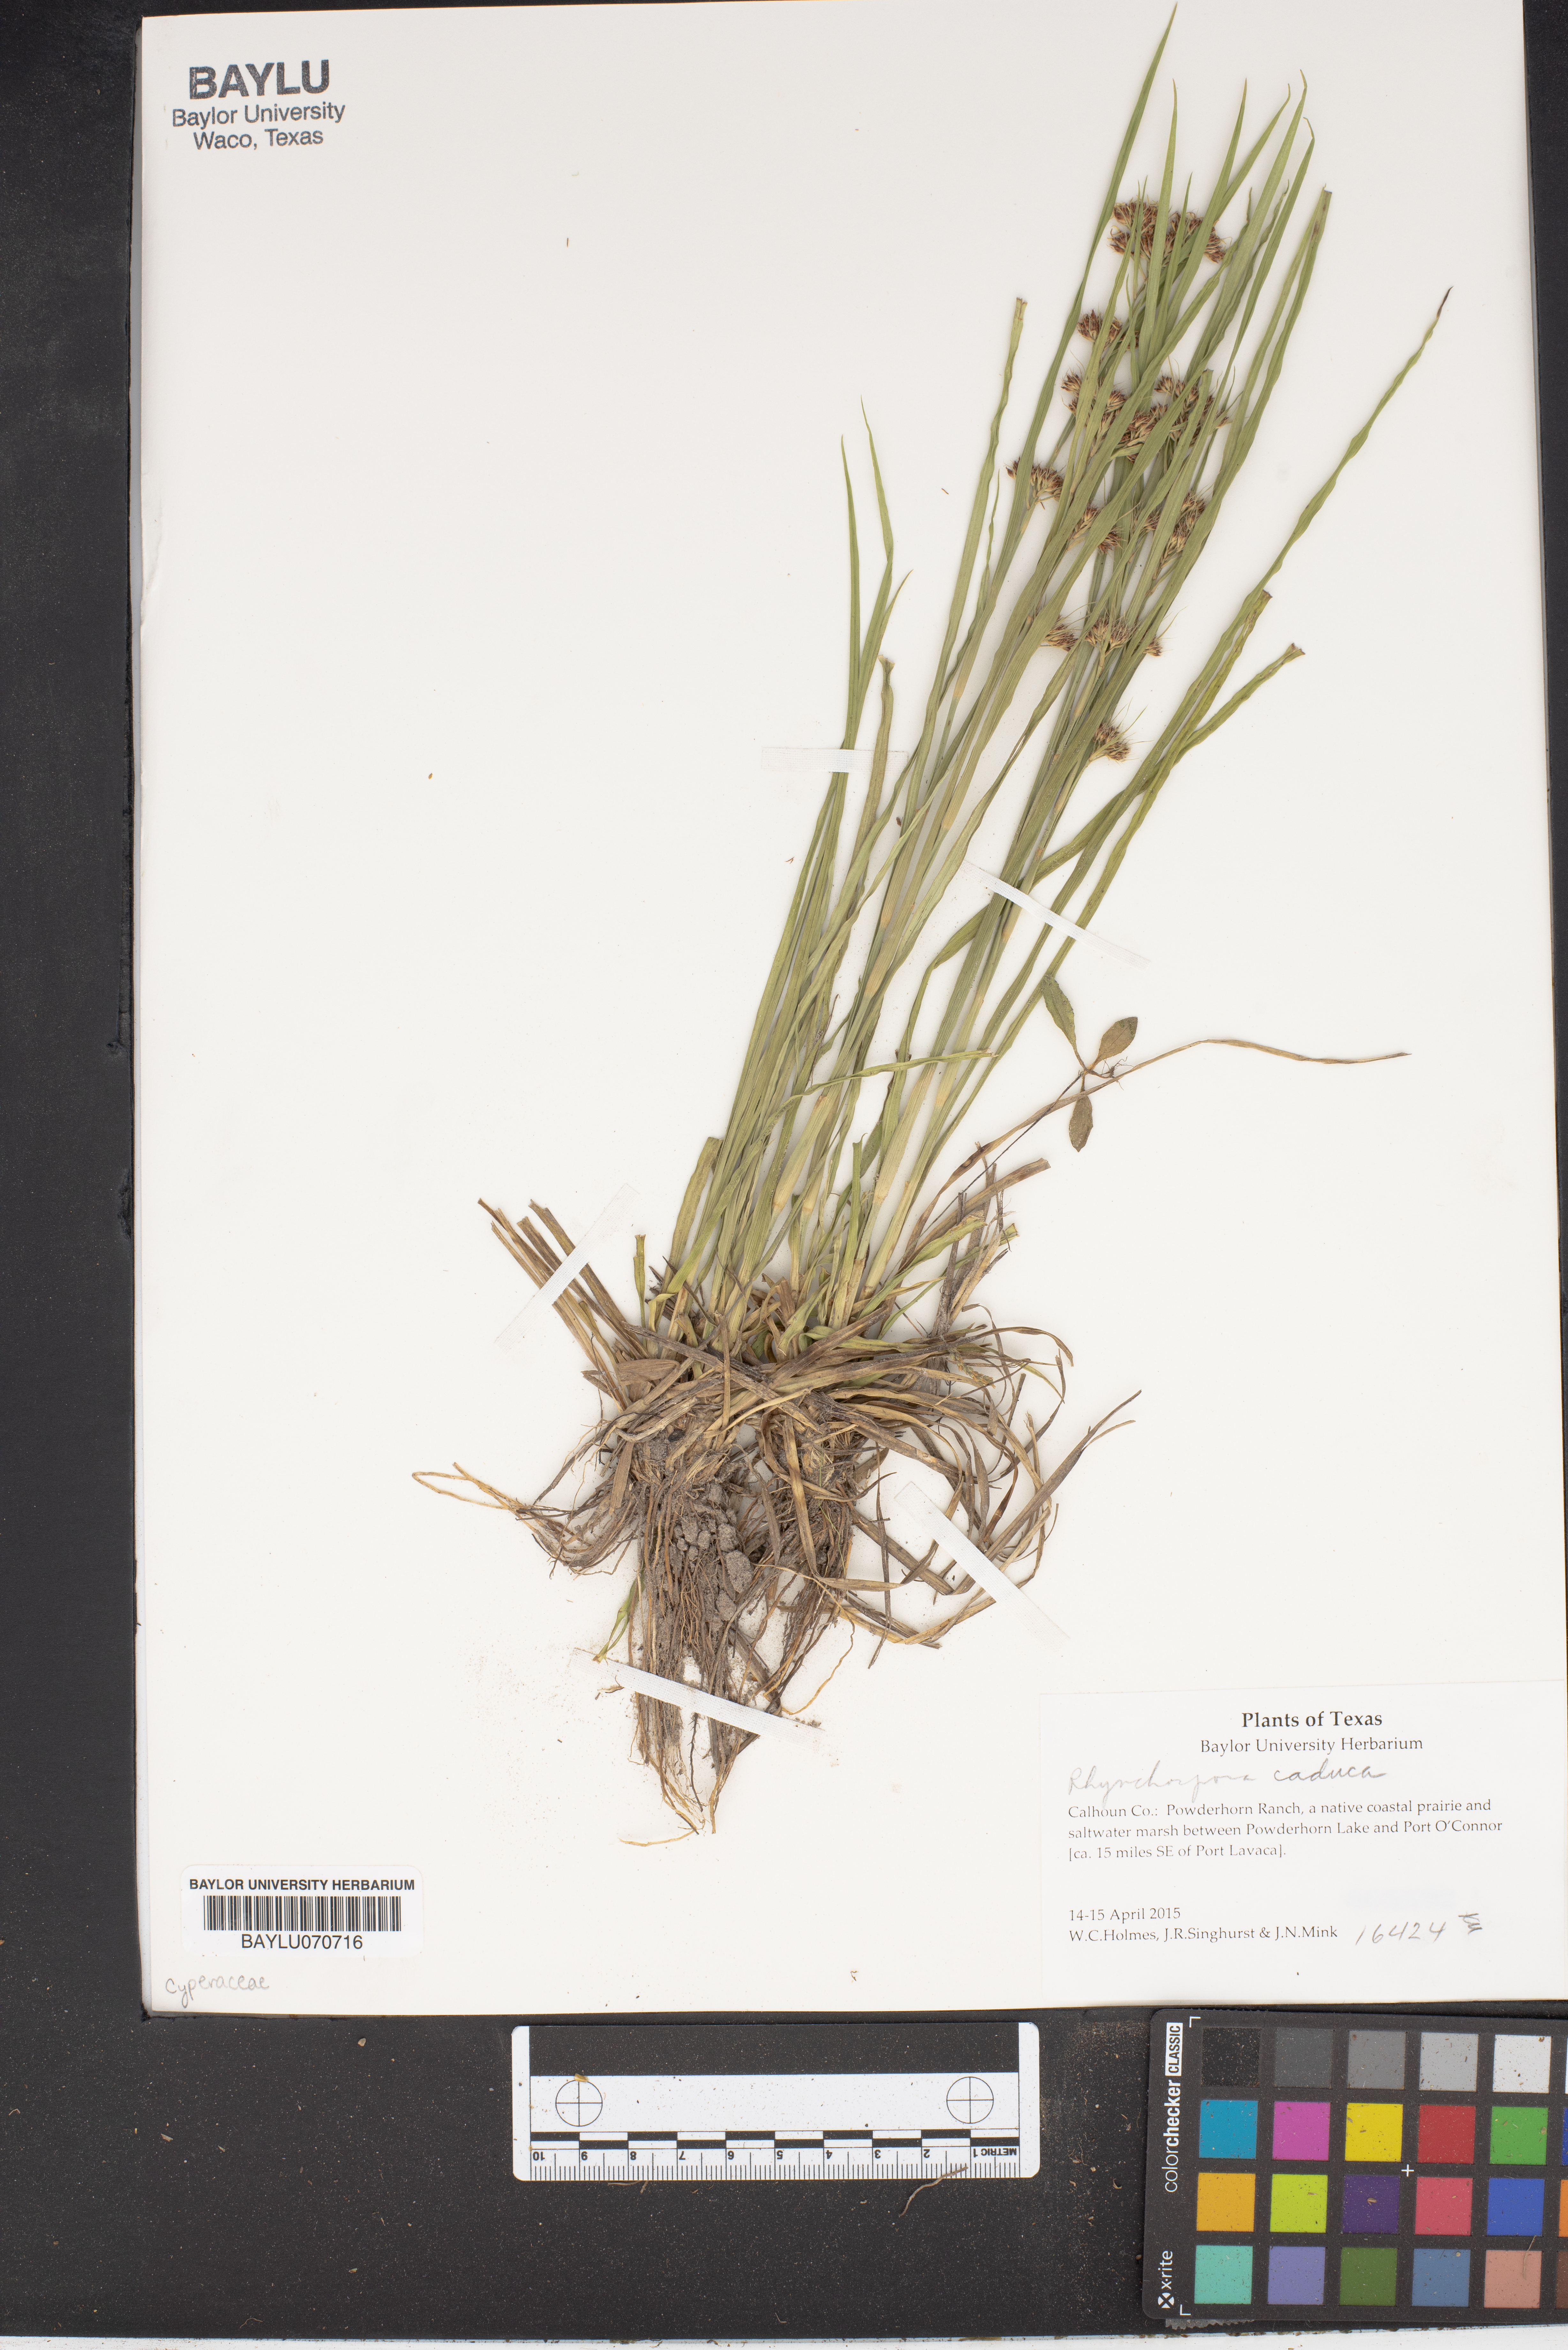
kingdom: Plantae
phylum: Tracheophyta
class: Liliopsida
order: Poales
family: Cyperaceae
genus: Rhynchospora
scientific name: Rhynchospora caduca
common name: Anglestem beaksedge
